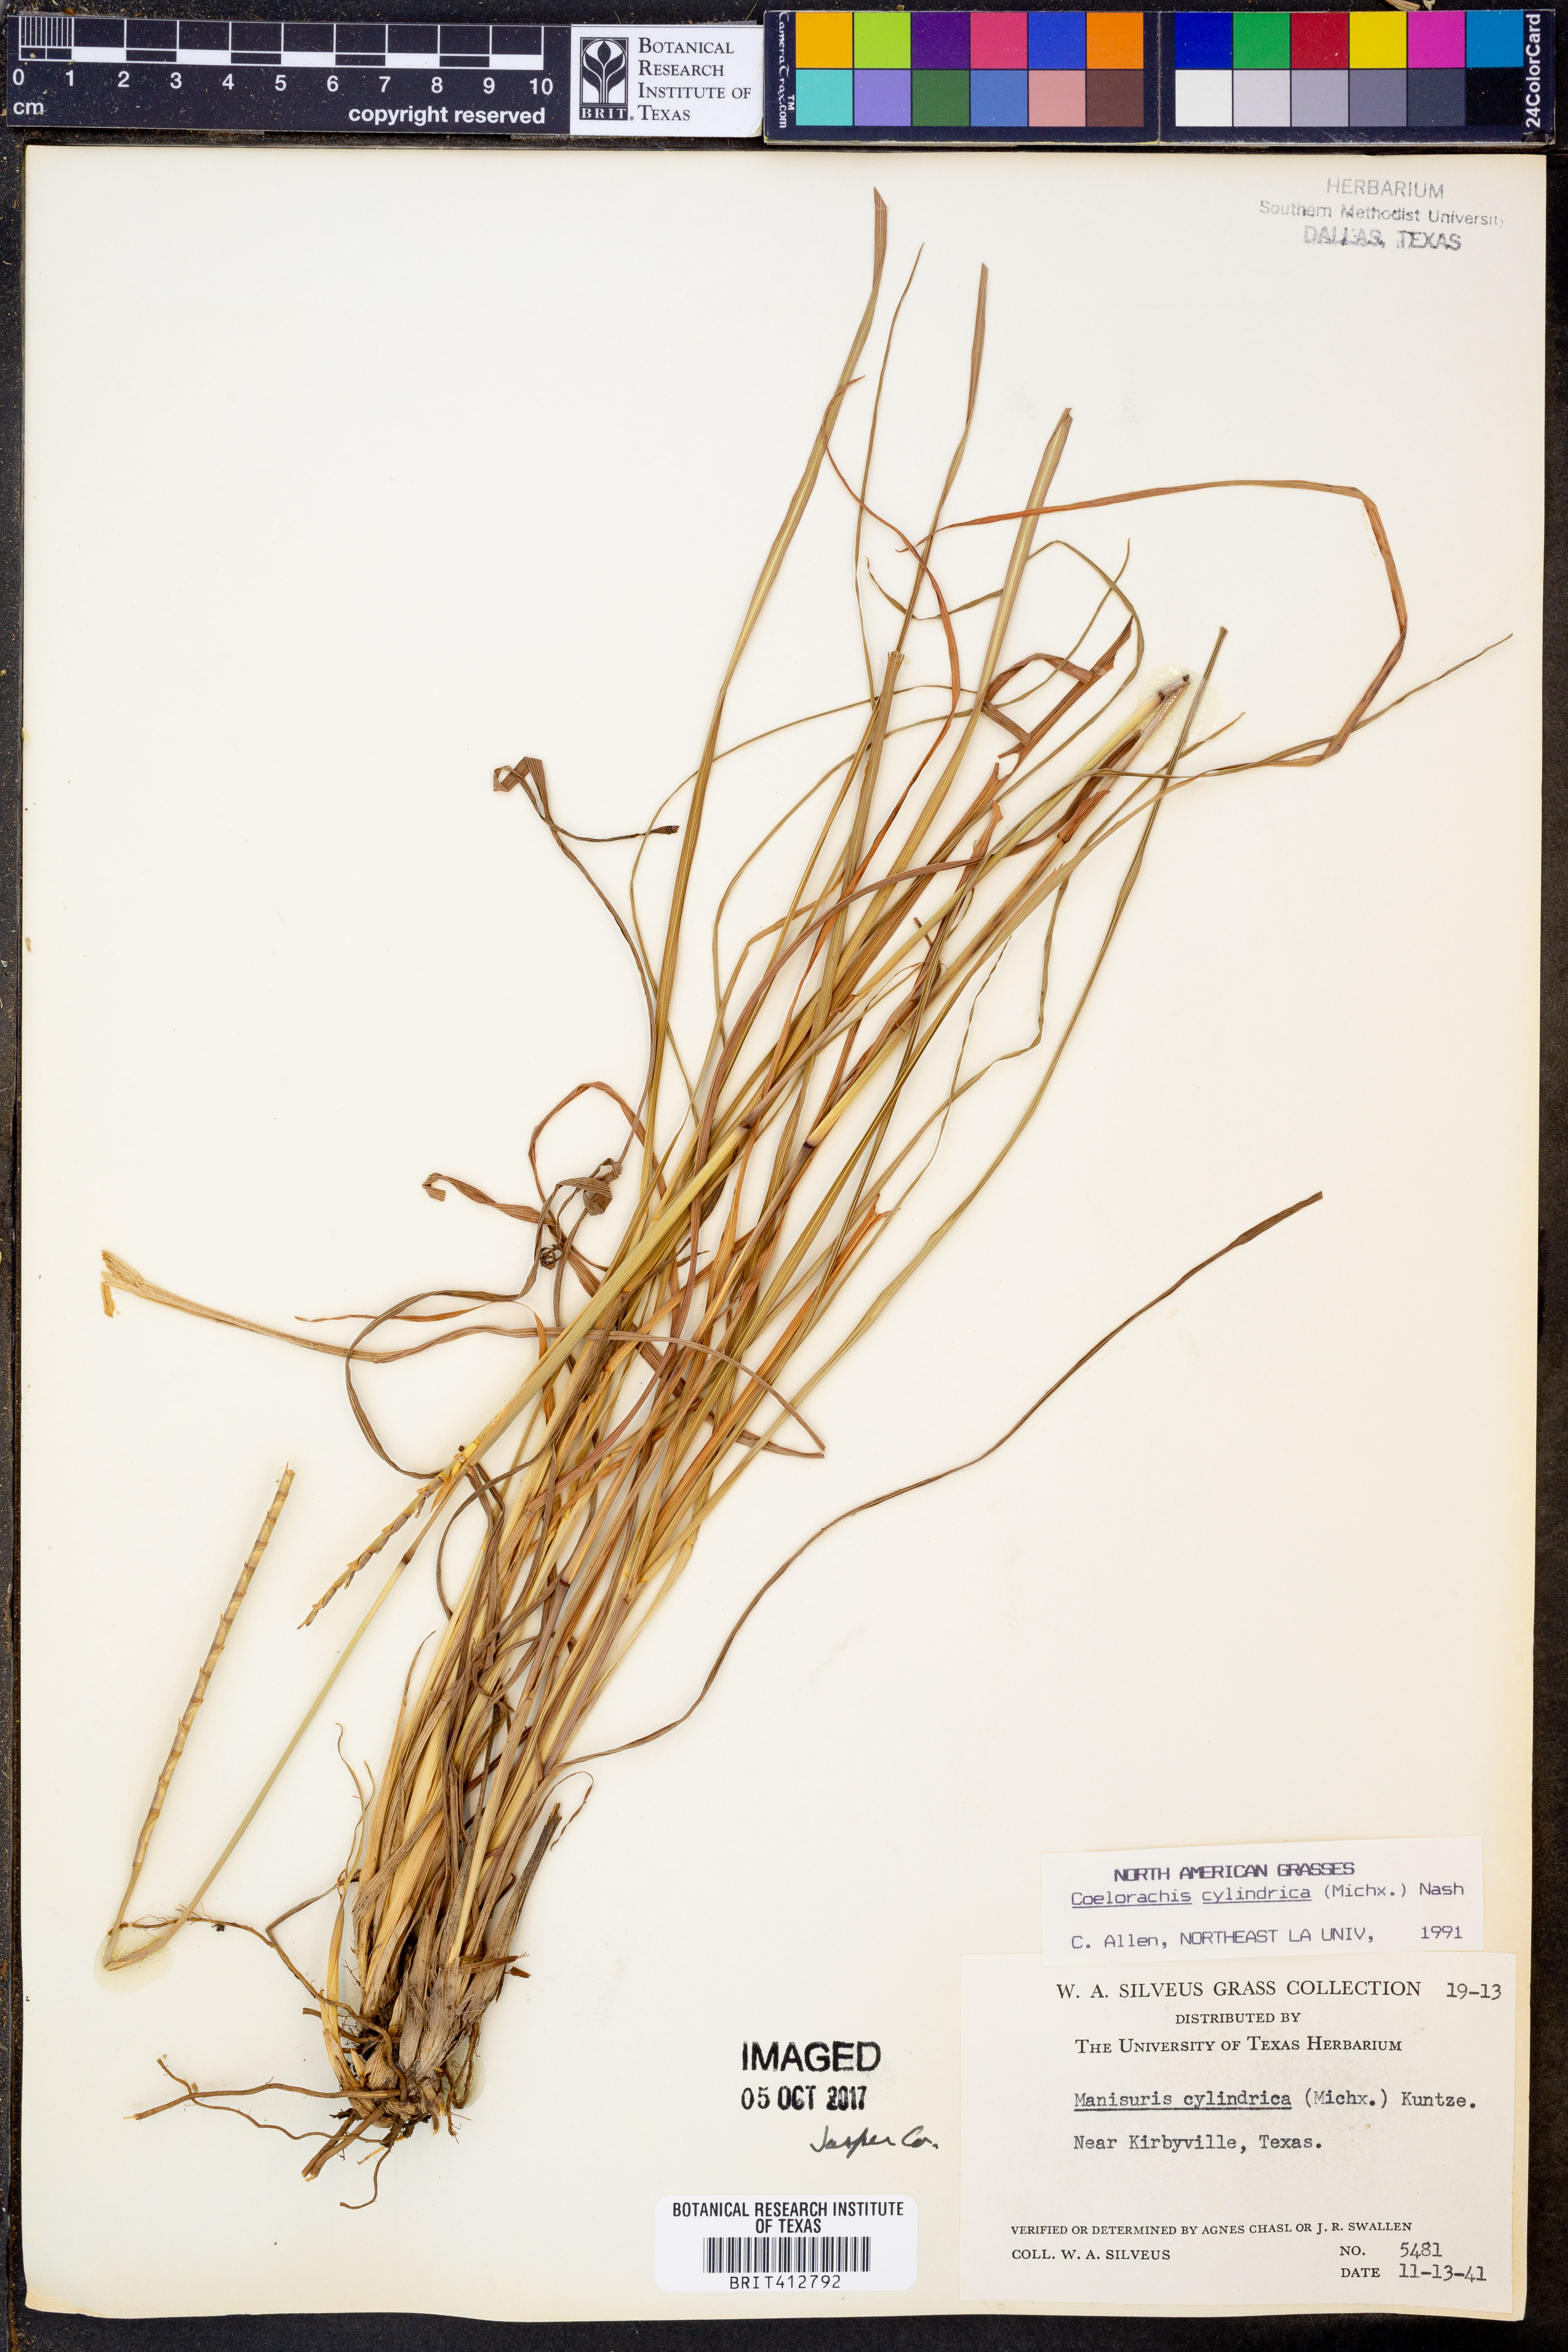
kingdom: Plantae
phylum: Tracheophyta
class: Liliopsida
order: Poales
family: Poaceae
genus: Rottboellia
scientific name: Rottboellia campestris
